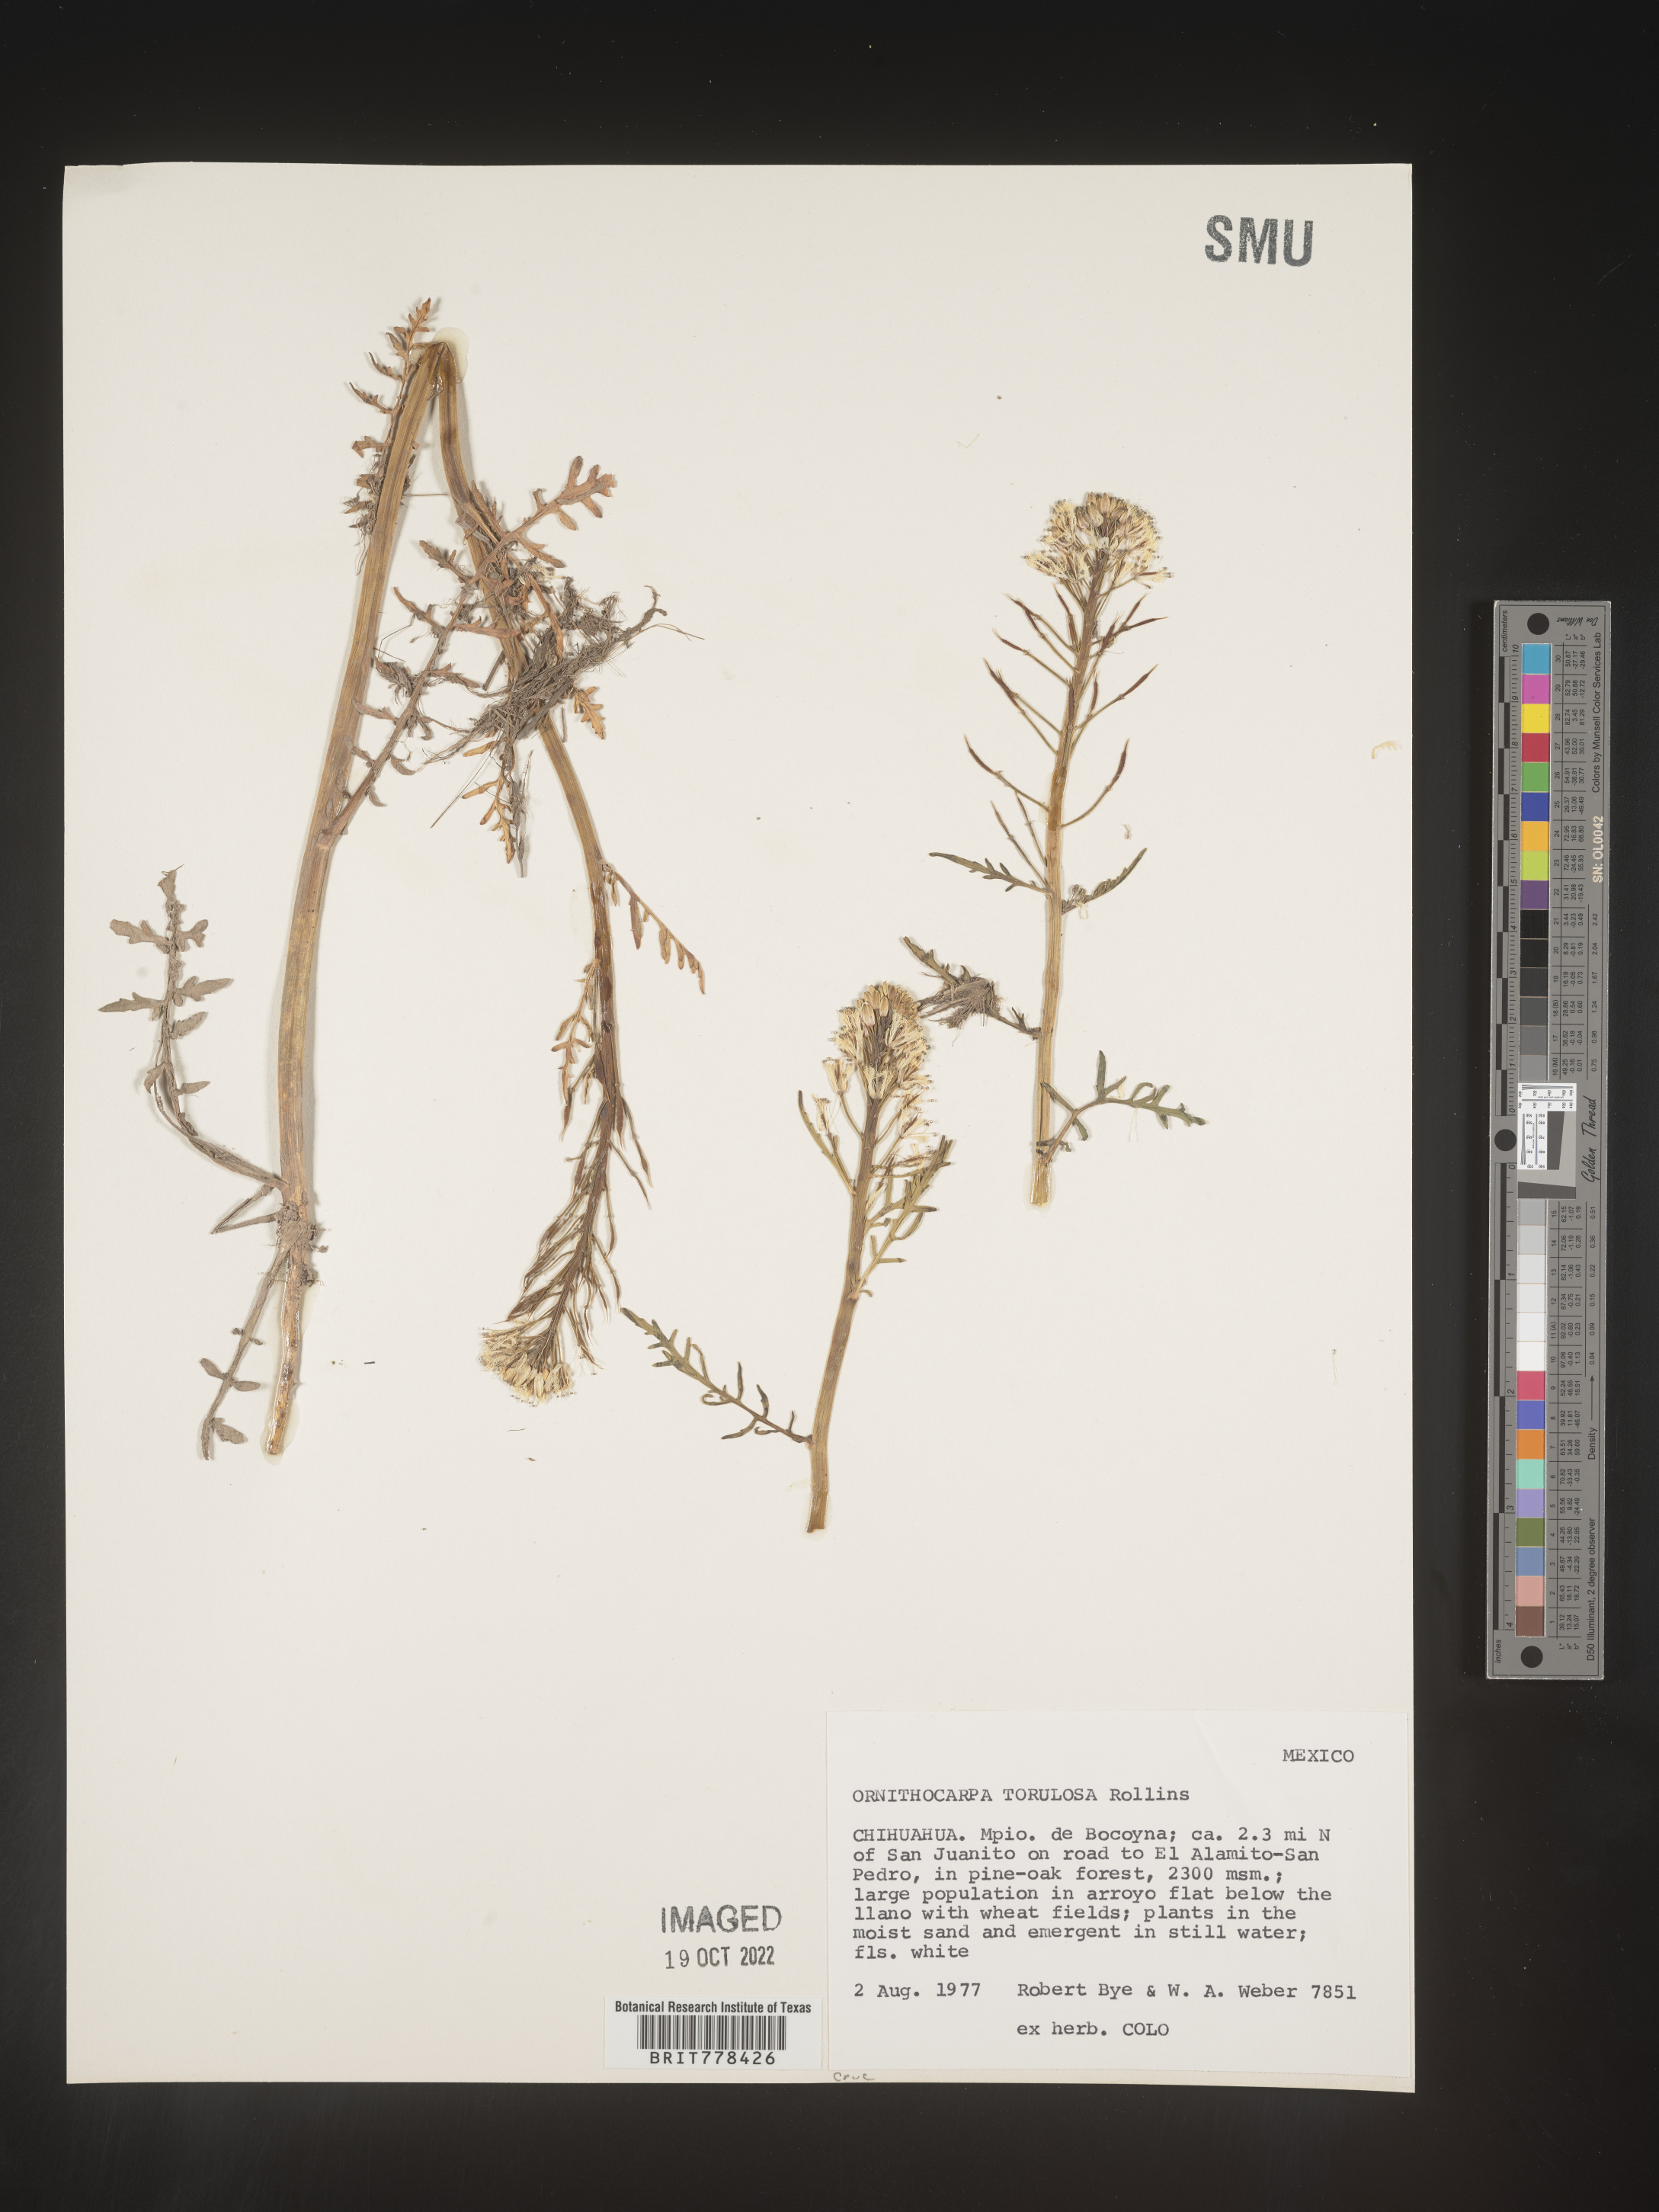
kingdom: Plantae
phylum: Tracheophyta
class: Magnoliopsida
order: Brassicales
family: Brassicaceae
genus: Ornithocarpa
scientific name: Ornithocarpa torulosa
